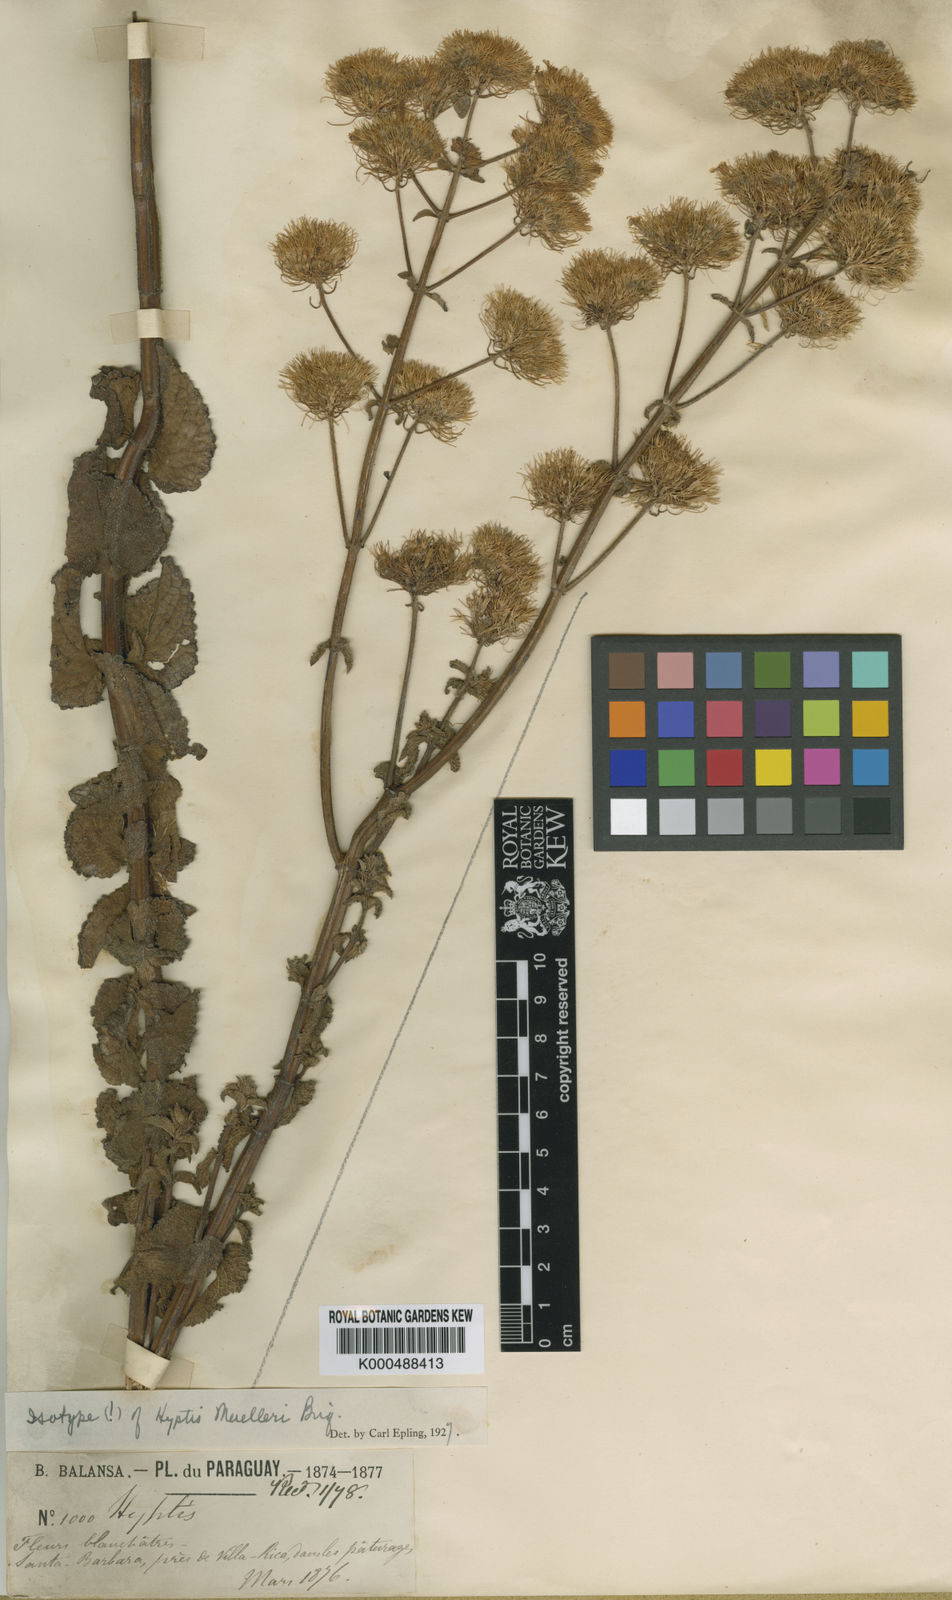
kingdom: Plantae
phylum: Tracheophyta
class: Magnoliopsida
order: Lamiales
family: Lamiaceae
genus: Hyptis
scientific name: Hyptis muelleri
